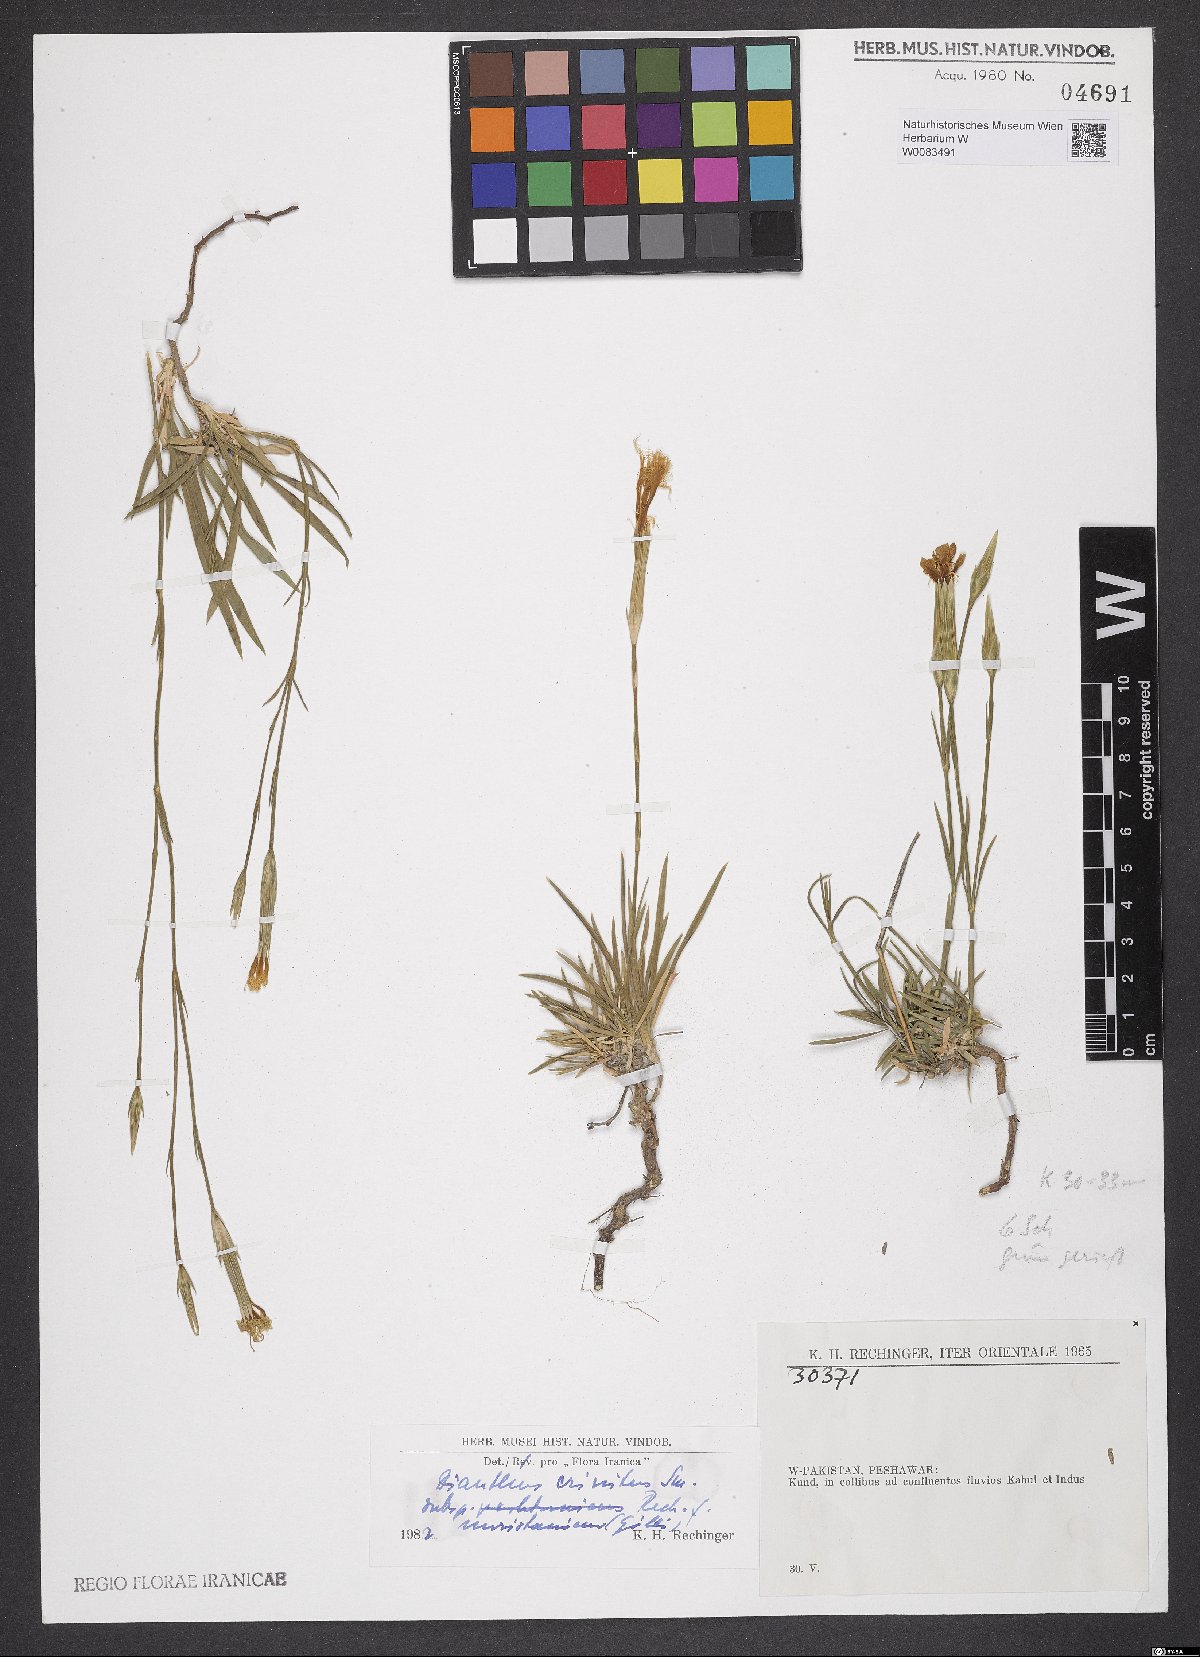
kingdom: Plantae
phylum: Tracheophyta
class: Magnoliopsida
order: Caryophyllales
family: Caryophyllaceae
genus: Dianthus
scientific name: Dianthus crinitus
